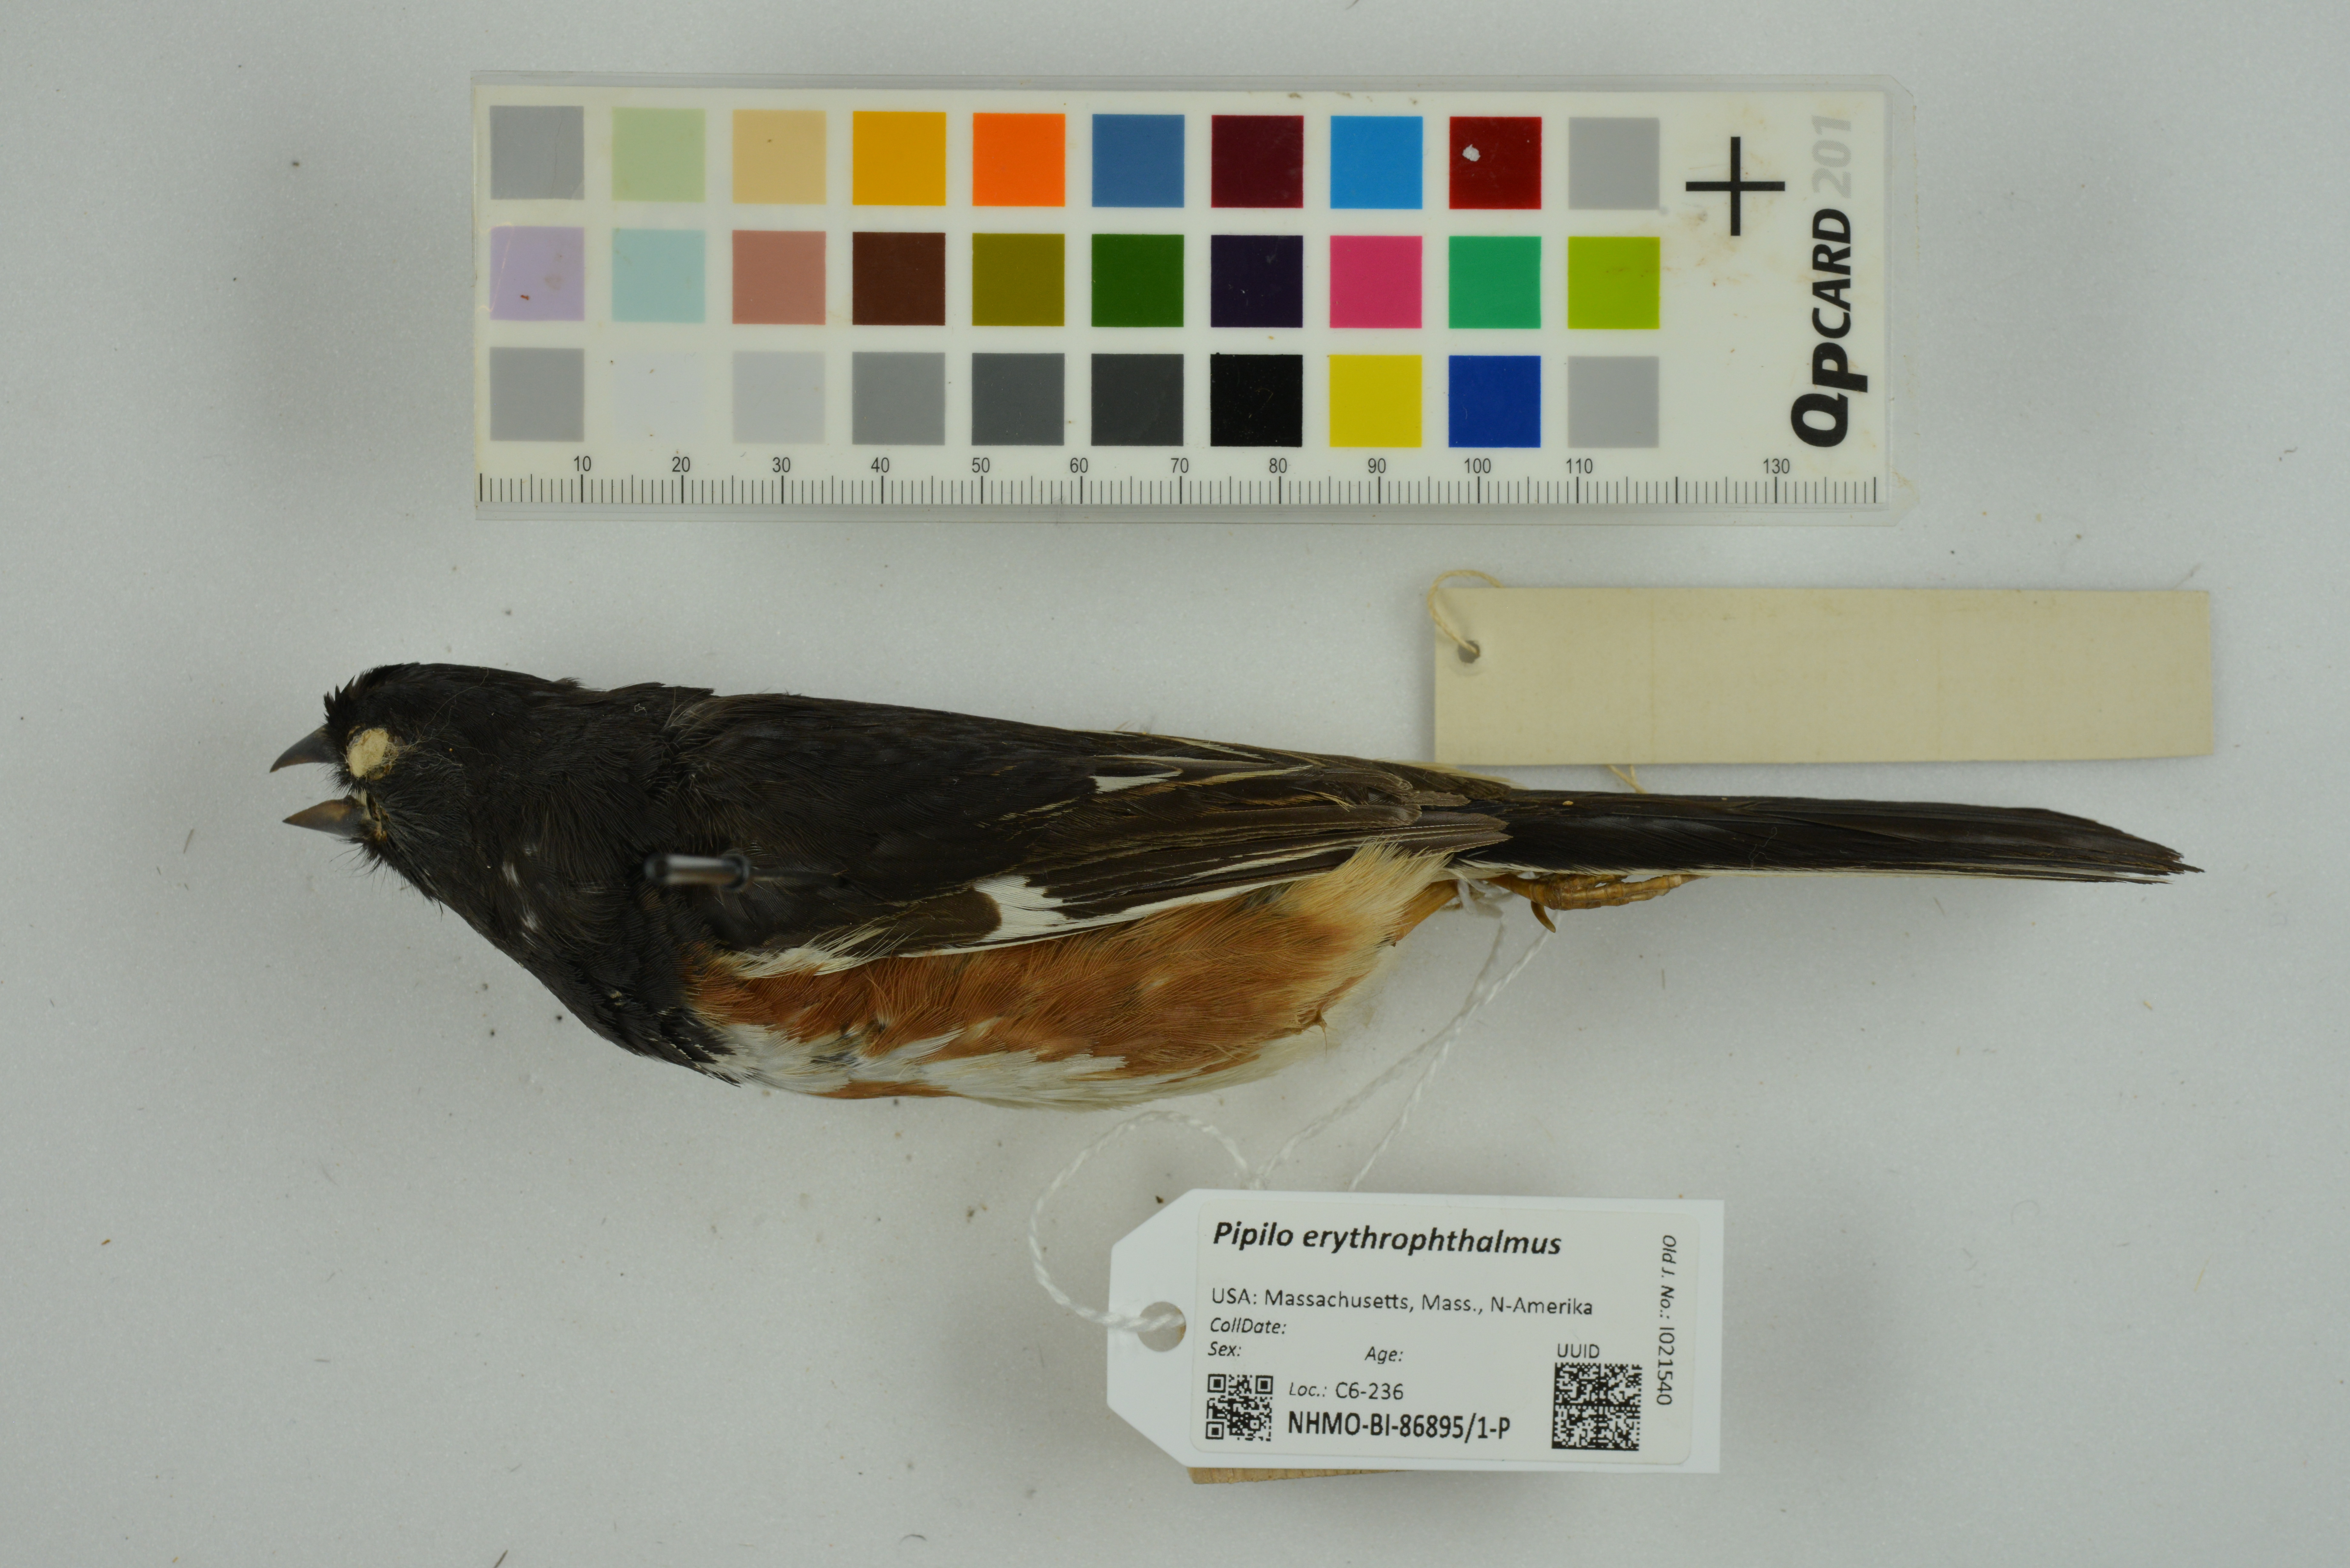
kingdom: Animalia
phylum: Chordata
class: Aves
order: Passeriformes
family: Passerellidae
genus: Pipilo
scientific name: Pipilo erythrophthalmus
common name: Eastern towhee
